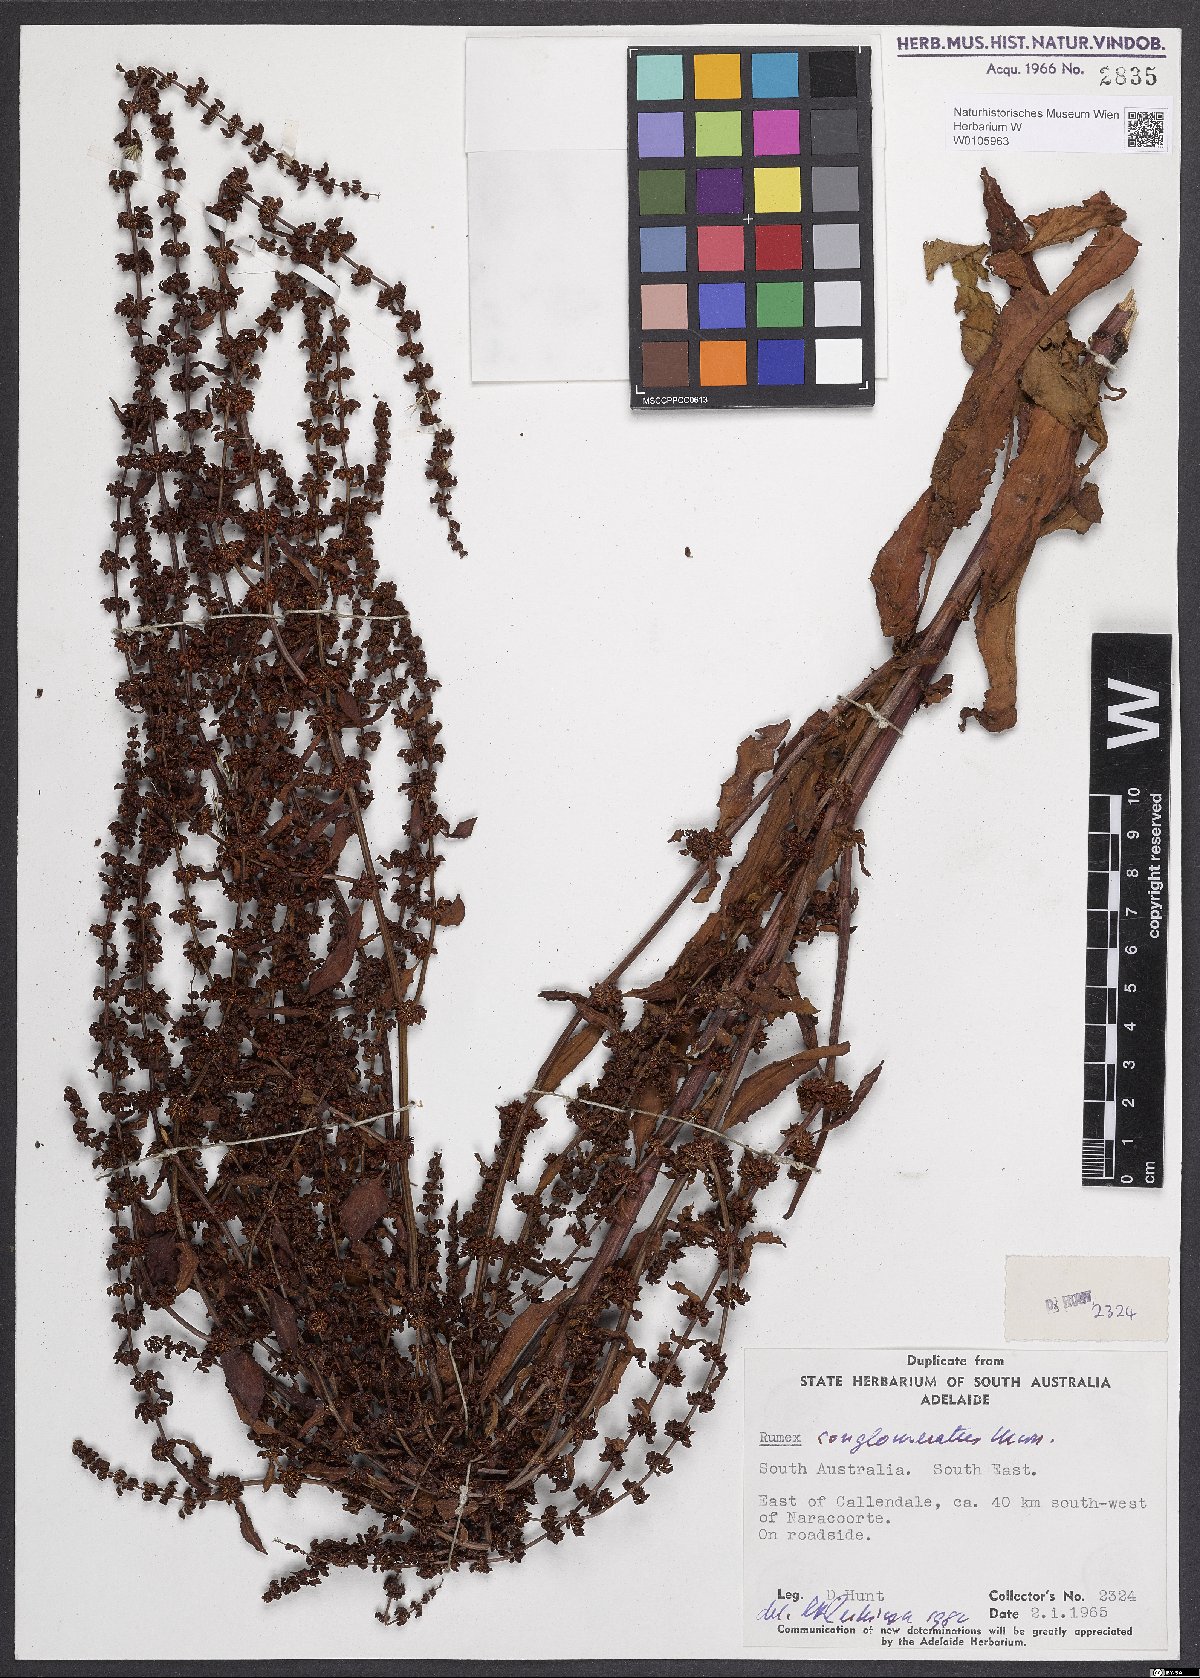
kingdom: Plantae
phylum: Tracheophyta
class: Magnoliopsida
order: Caryophyllales
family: Polygonaceae
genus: Rumex
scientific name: Rumex conglomeratus
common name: Clustered dock
